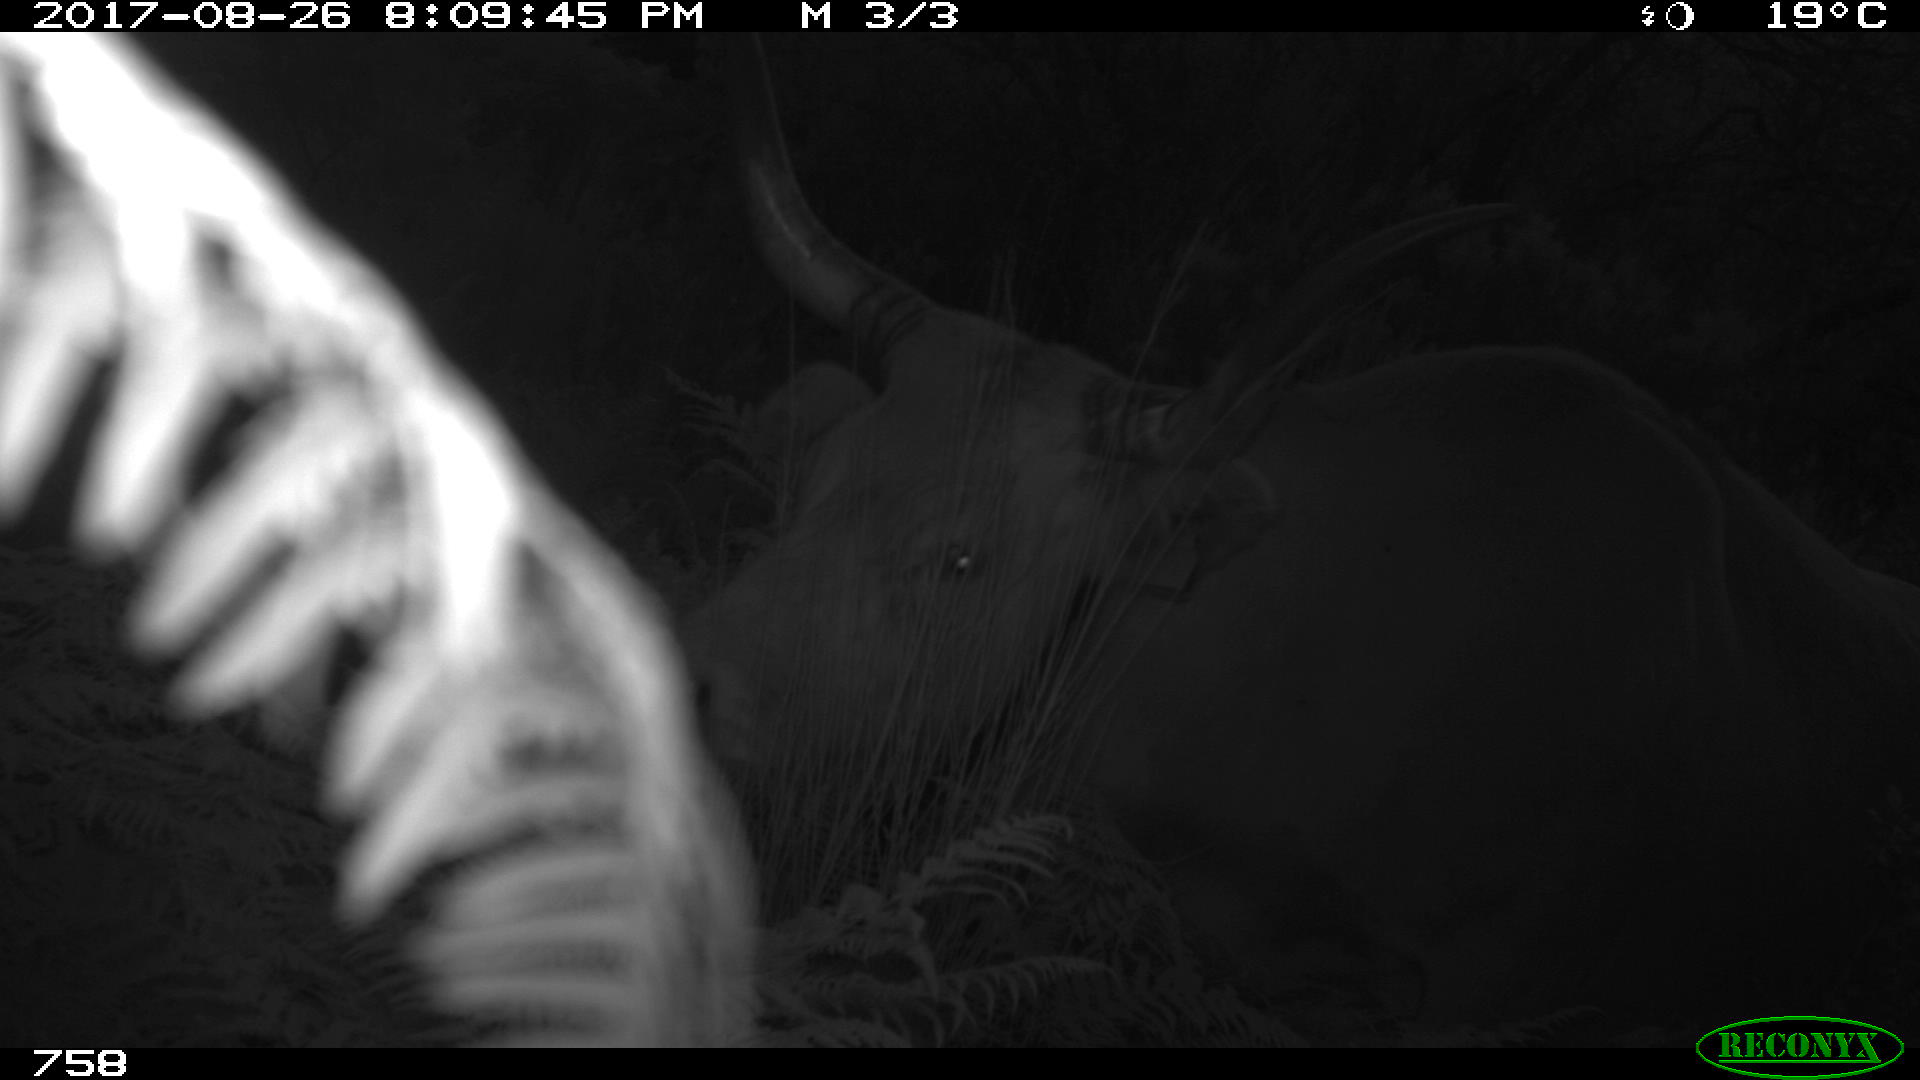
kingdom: Animalia
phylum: Chordata
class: Mammalia
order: Artiodactyla
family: Bovidae
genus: Bos
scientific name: Bos taurus
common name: Domesticated cattle
